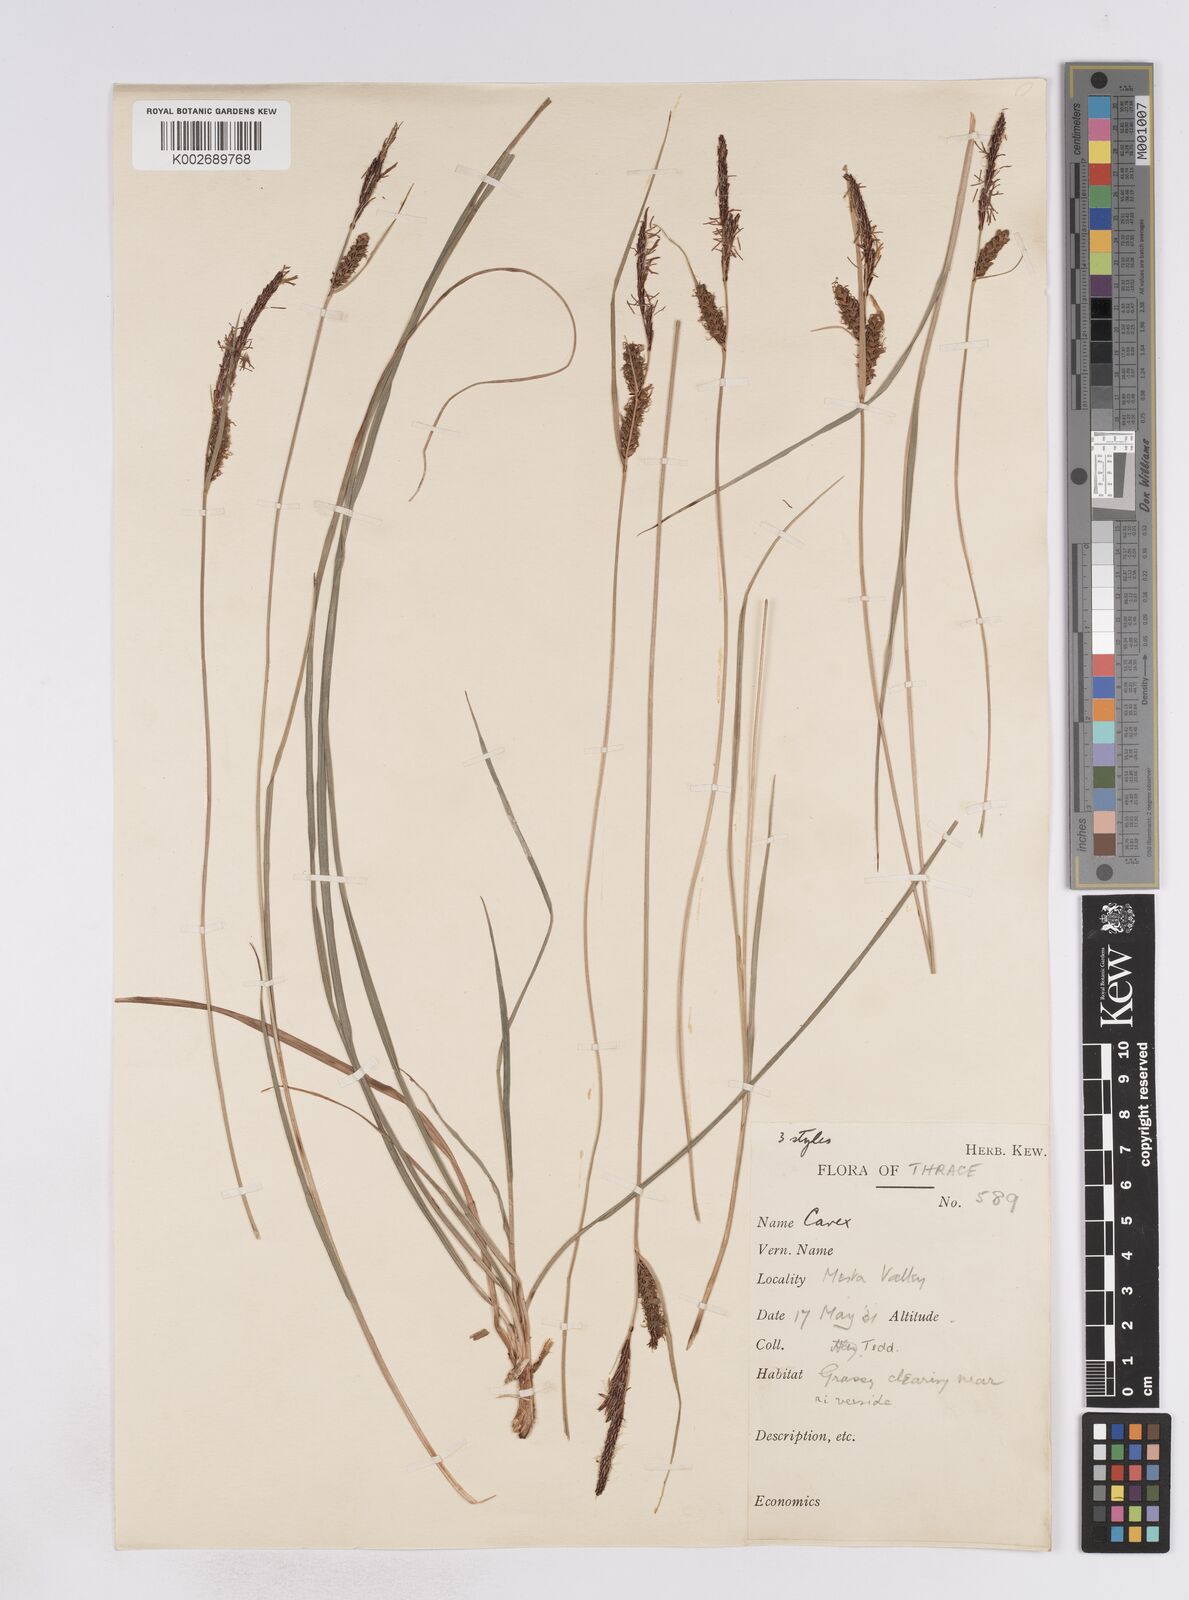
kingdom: Plantae
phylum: Tracheophyta
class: Liliopsida
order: Poales
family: Cyperaceae
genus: Carex
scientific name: Carex flacca
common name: Glaucous sedge
